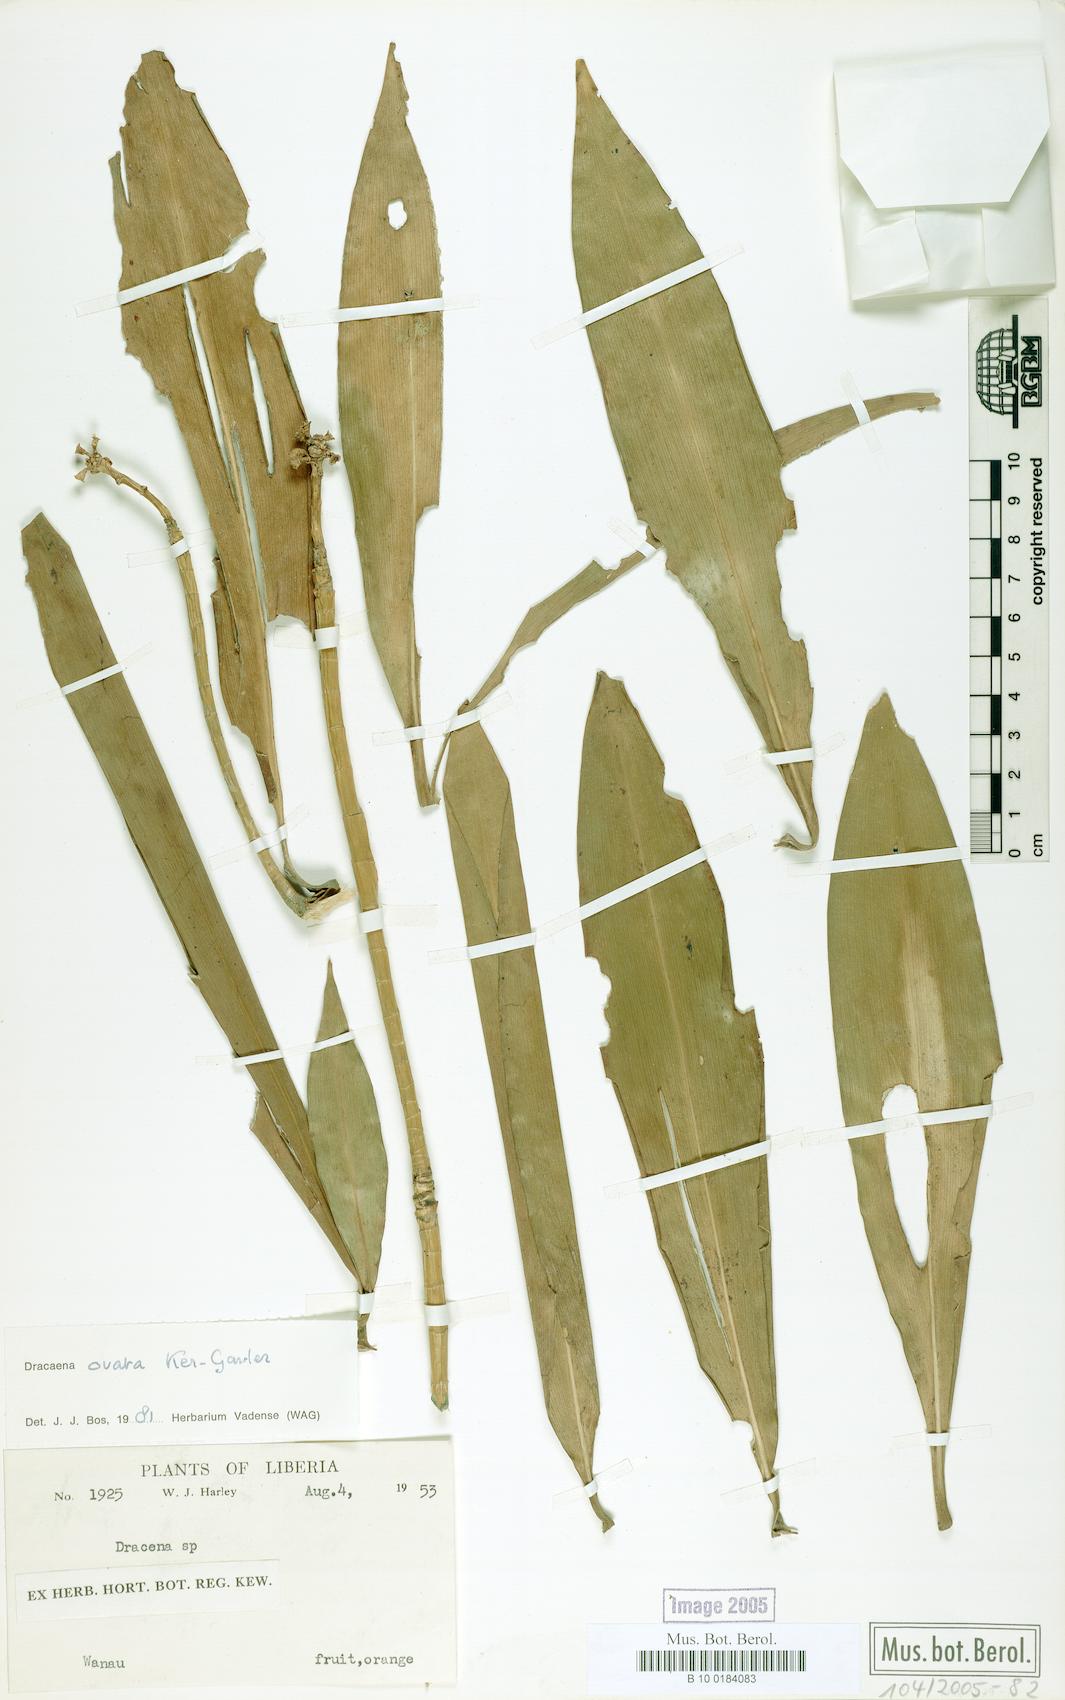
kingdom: Plantae
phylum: Tracheophyta
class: Liliopsida
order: Asparagales
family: Asparagaceae
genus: Dracaena
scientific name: Dracaena ovata
